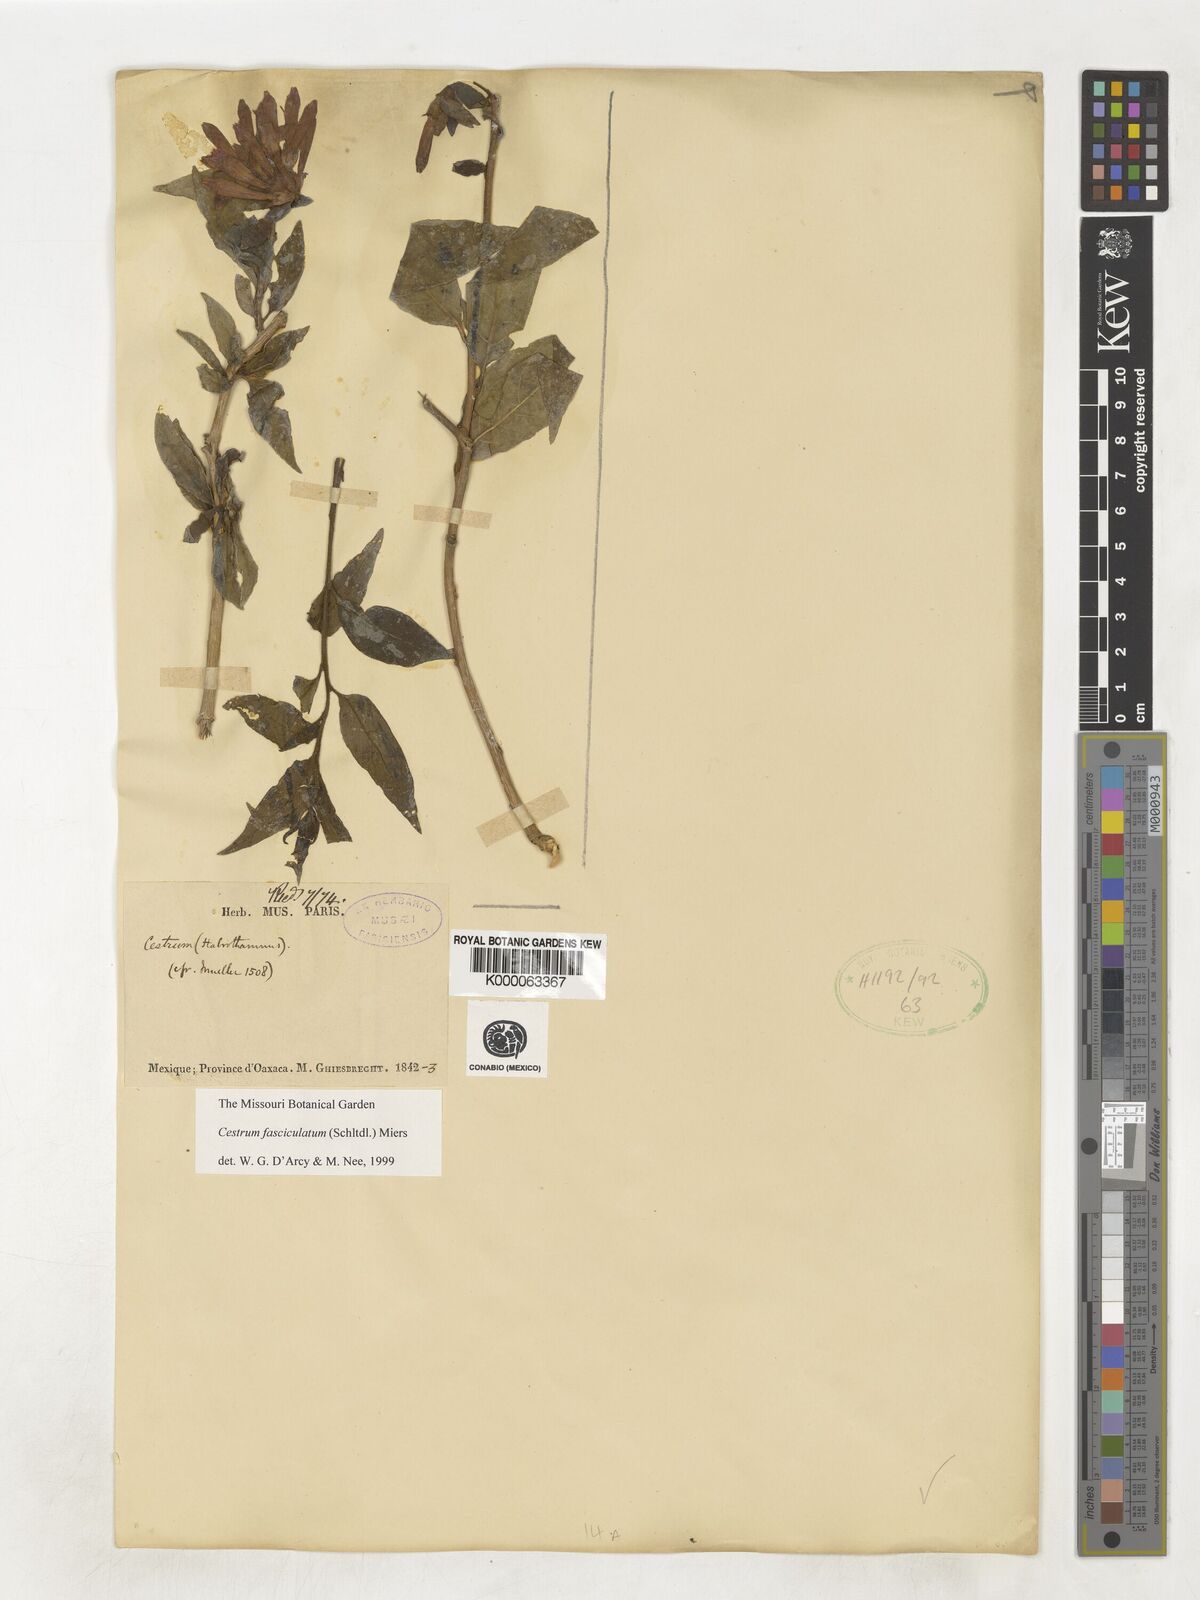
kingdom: Plantae
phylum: Tracheophyta
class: Magnoliopsida
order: Solanales
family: Solanaceae
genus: Cestrum
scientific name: Cestrum fasciculatum
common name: Early jessamine
